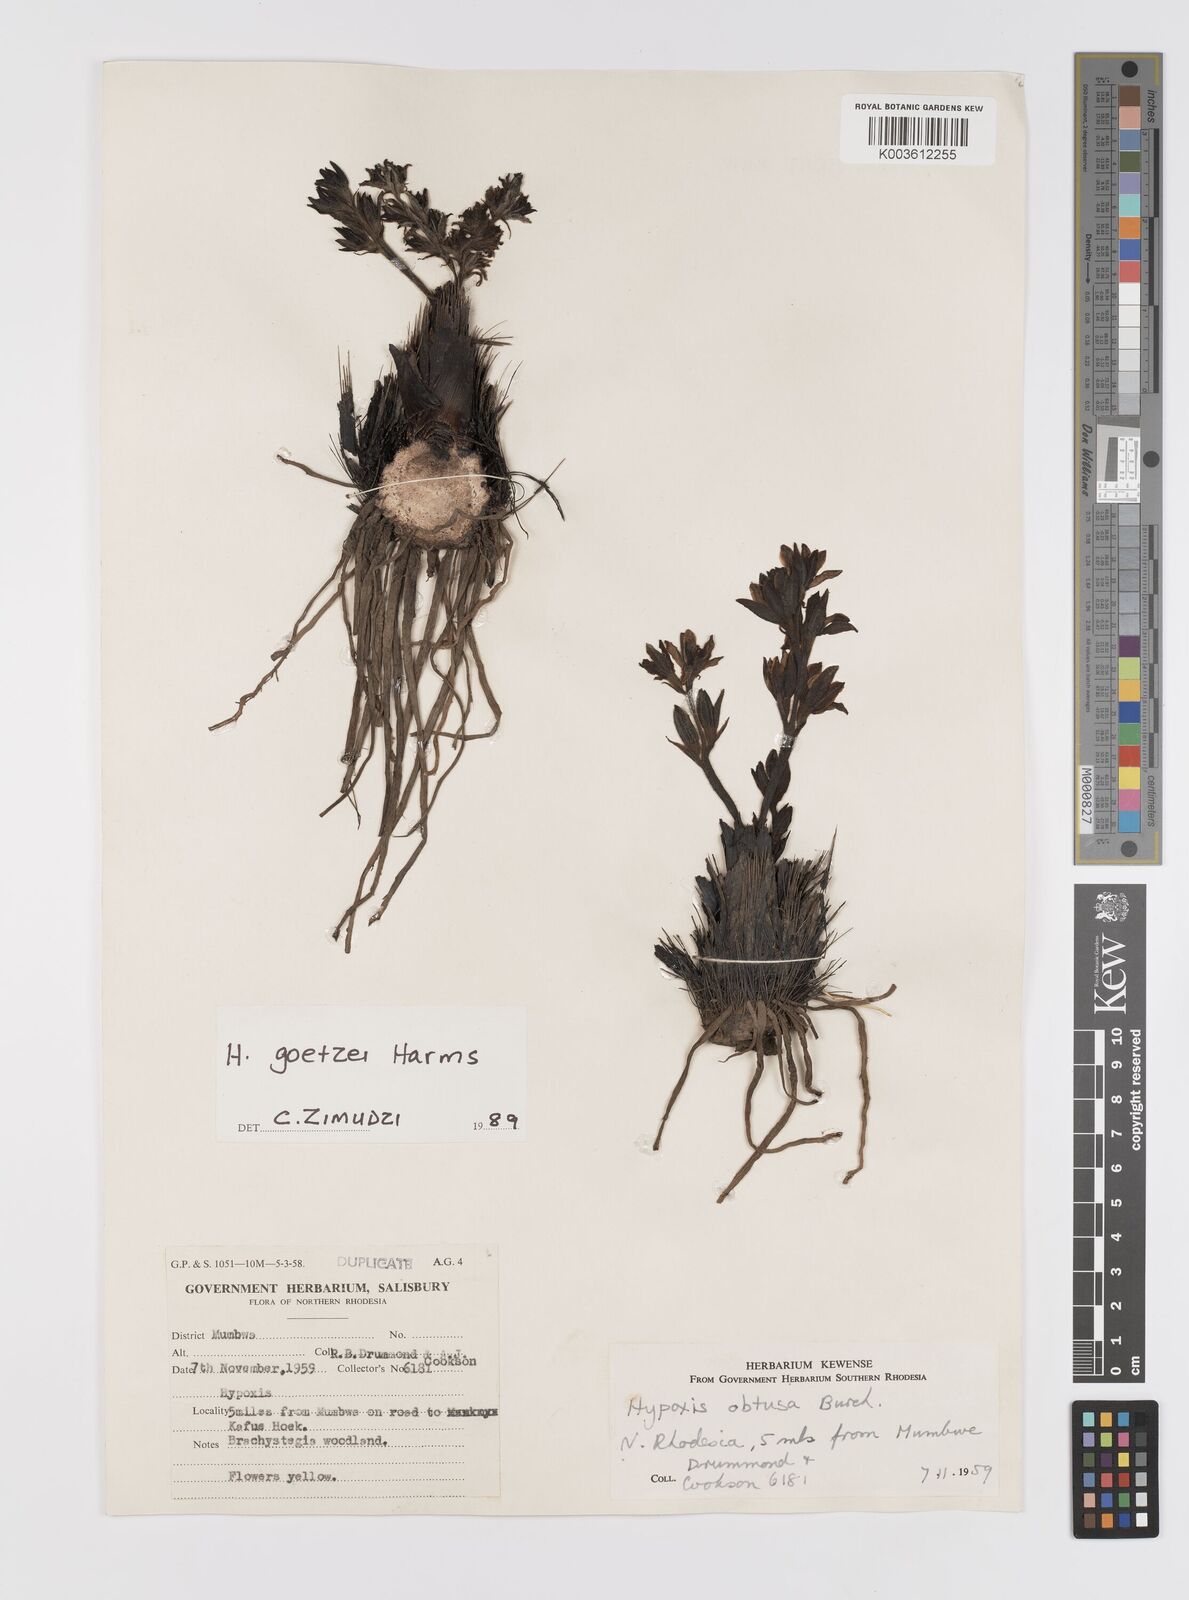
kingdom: Plantae
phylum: Tracheophyta
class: Liliopsida
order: Asparagales
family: Hypoxidaceae
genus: Hypoxis
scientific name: Hypoxis goetzei
